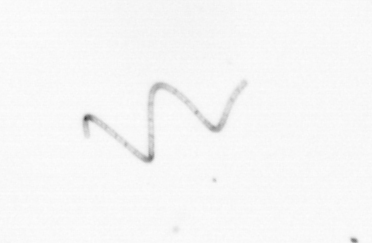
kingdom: Chromista
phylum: Ochrophyta
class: Bacillariophyceae
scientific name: Bacillariophyceae
